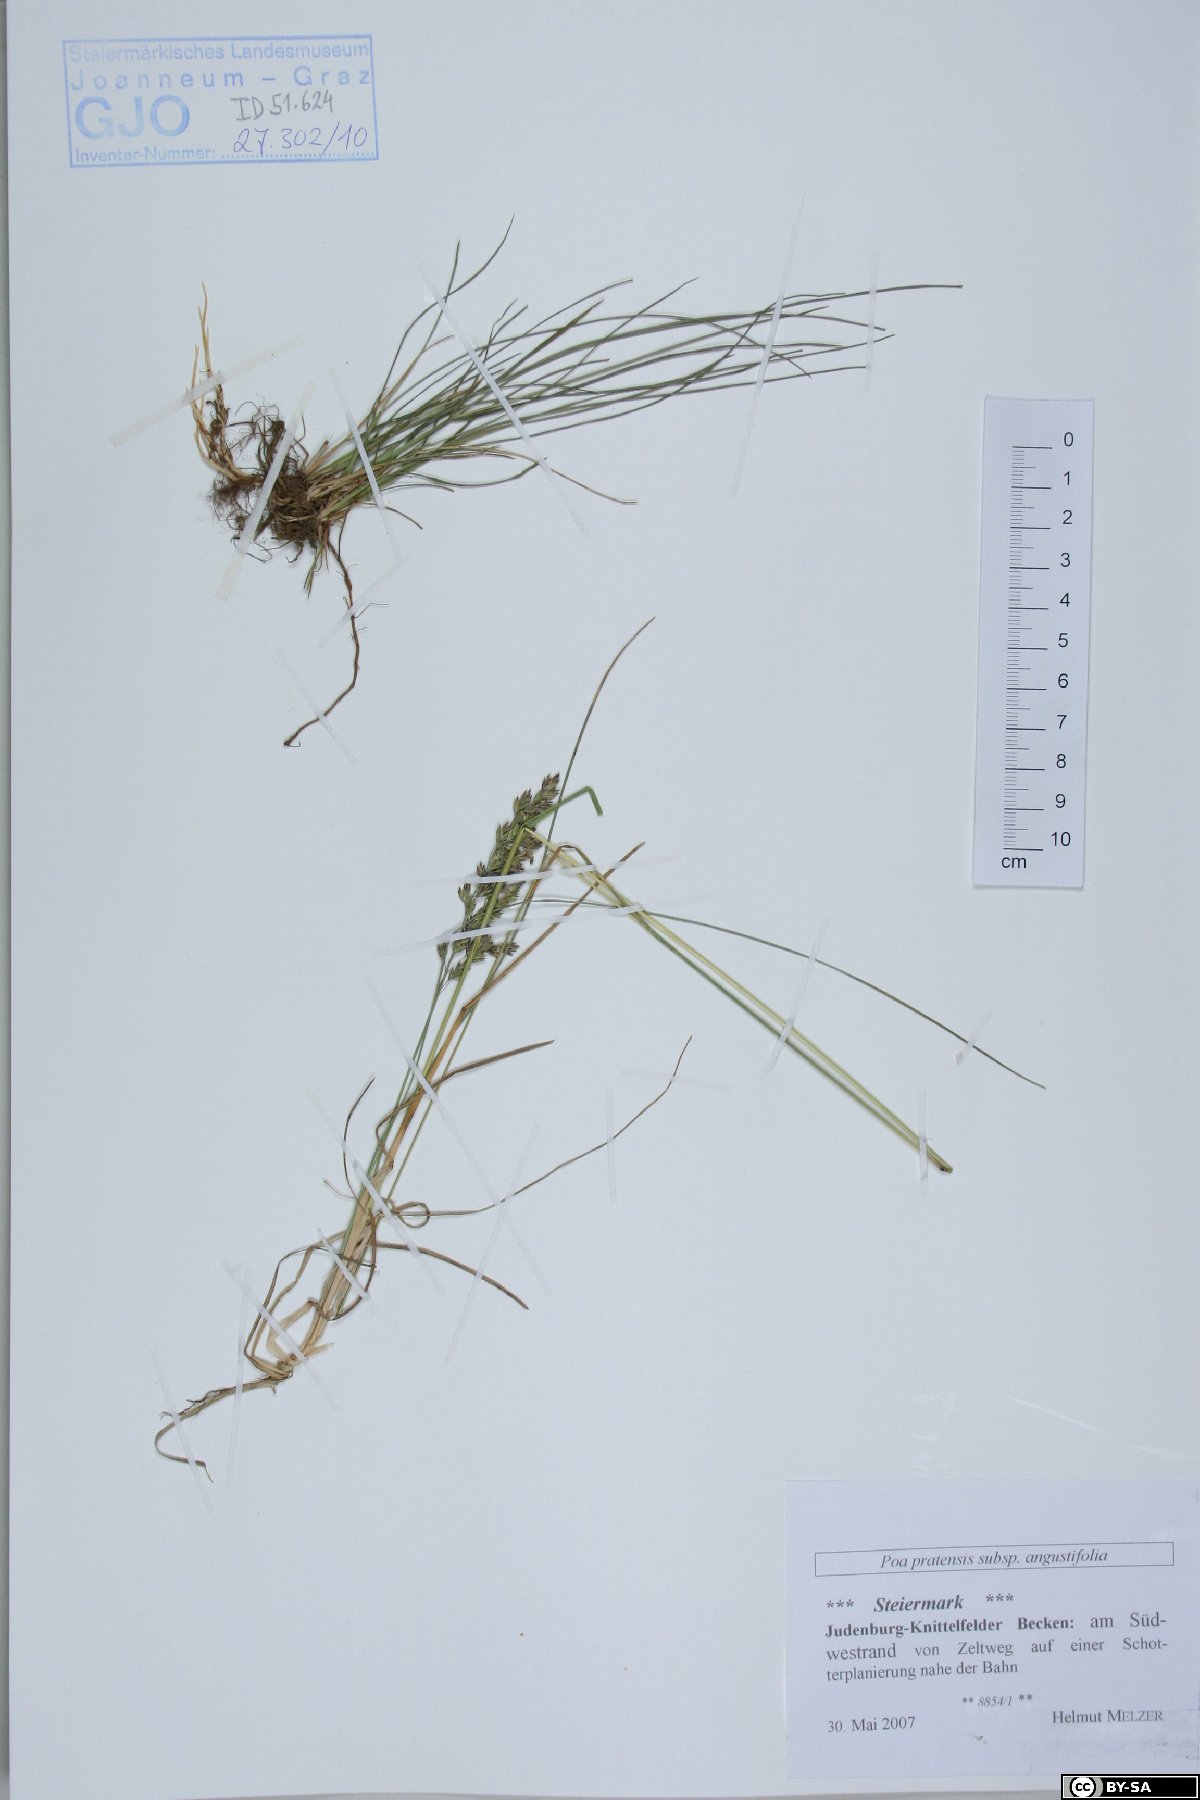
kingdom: Plantae
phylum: Tracheophyta
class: Liliopsida
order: Poales
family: Poaceae
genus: Poa
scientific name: Poa angustifolia
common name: Narrow-leaved meadow-grass
